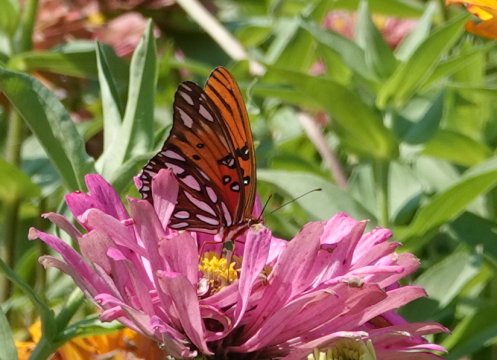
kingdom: Animalia
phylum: Arthropoda
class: Insecta
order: Lepidoptera
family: Nymphalidae
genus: Dione
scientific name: Dione vanillae
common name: Gulf Fritillary
